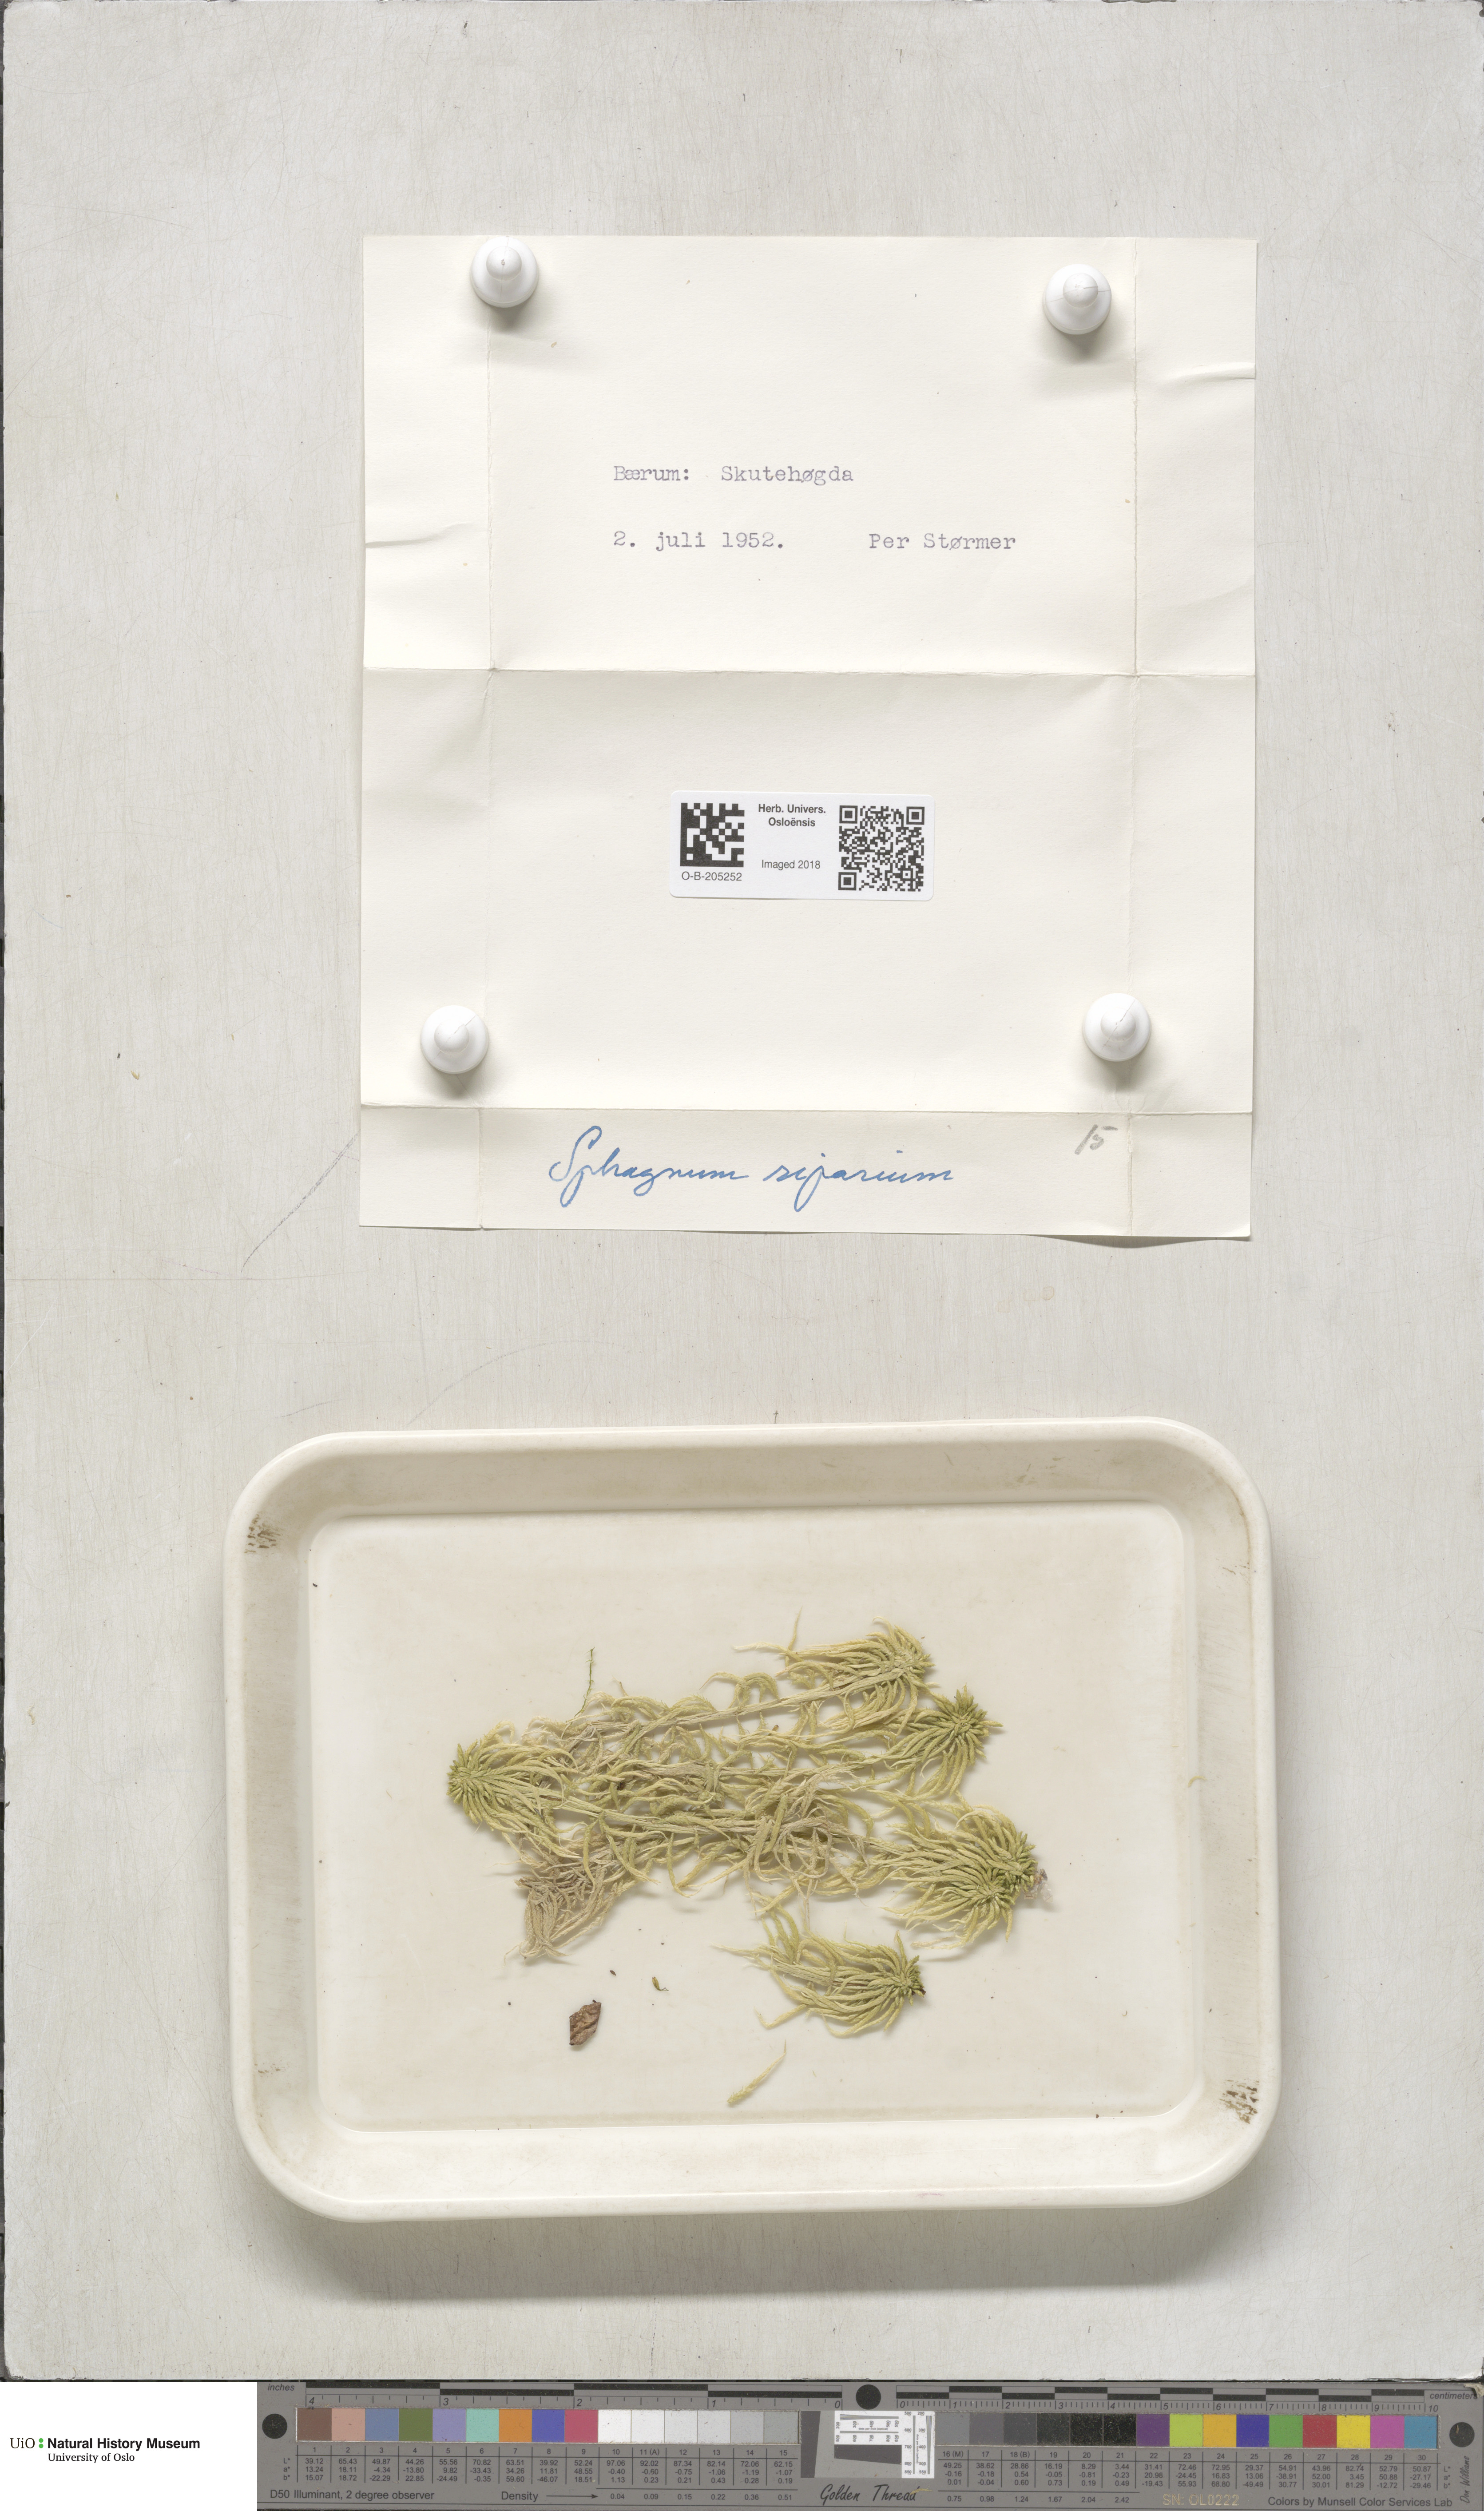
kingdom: Plantae
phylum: Bryophyta
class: Sphagnopsida
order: Sphagnales
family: Sphagnaceae
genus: Sphagnum
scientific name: Sphagnum riparium
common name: Streamside peat moss
